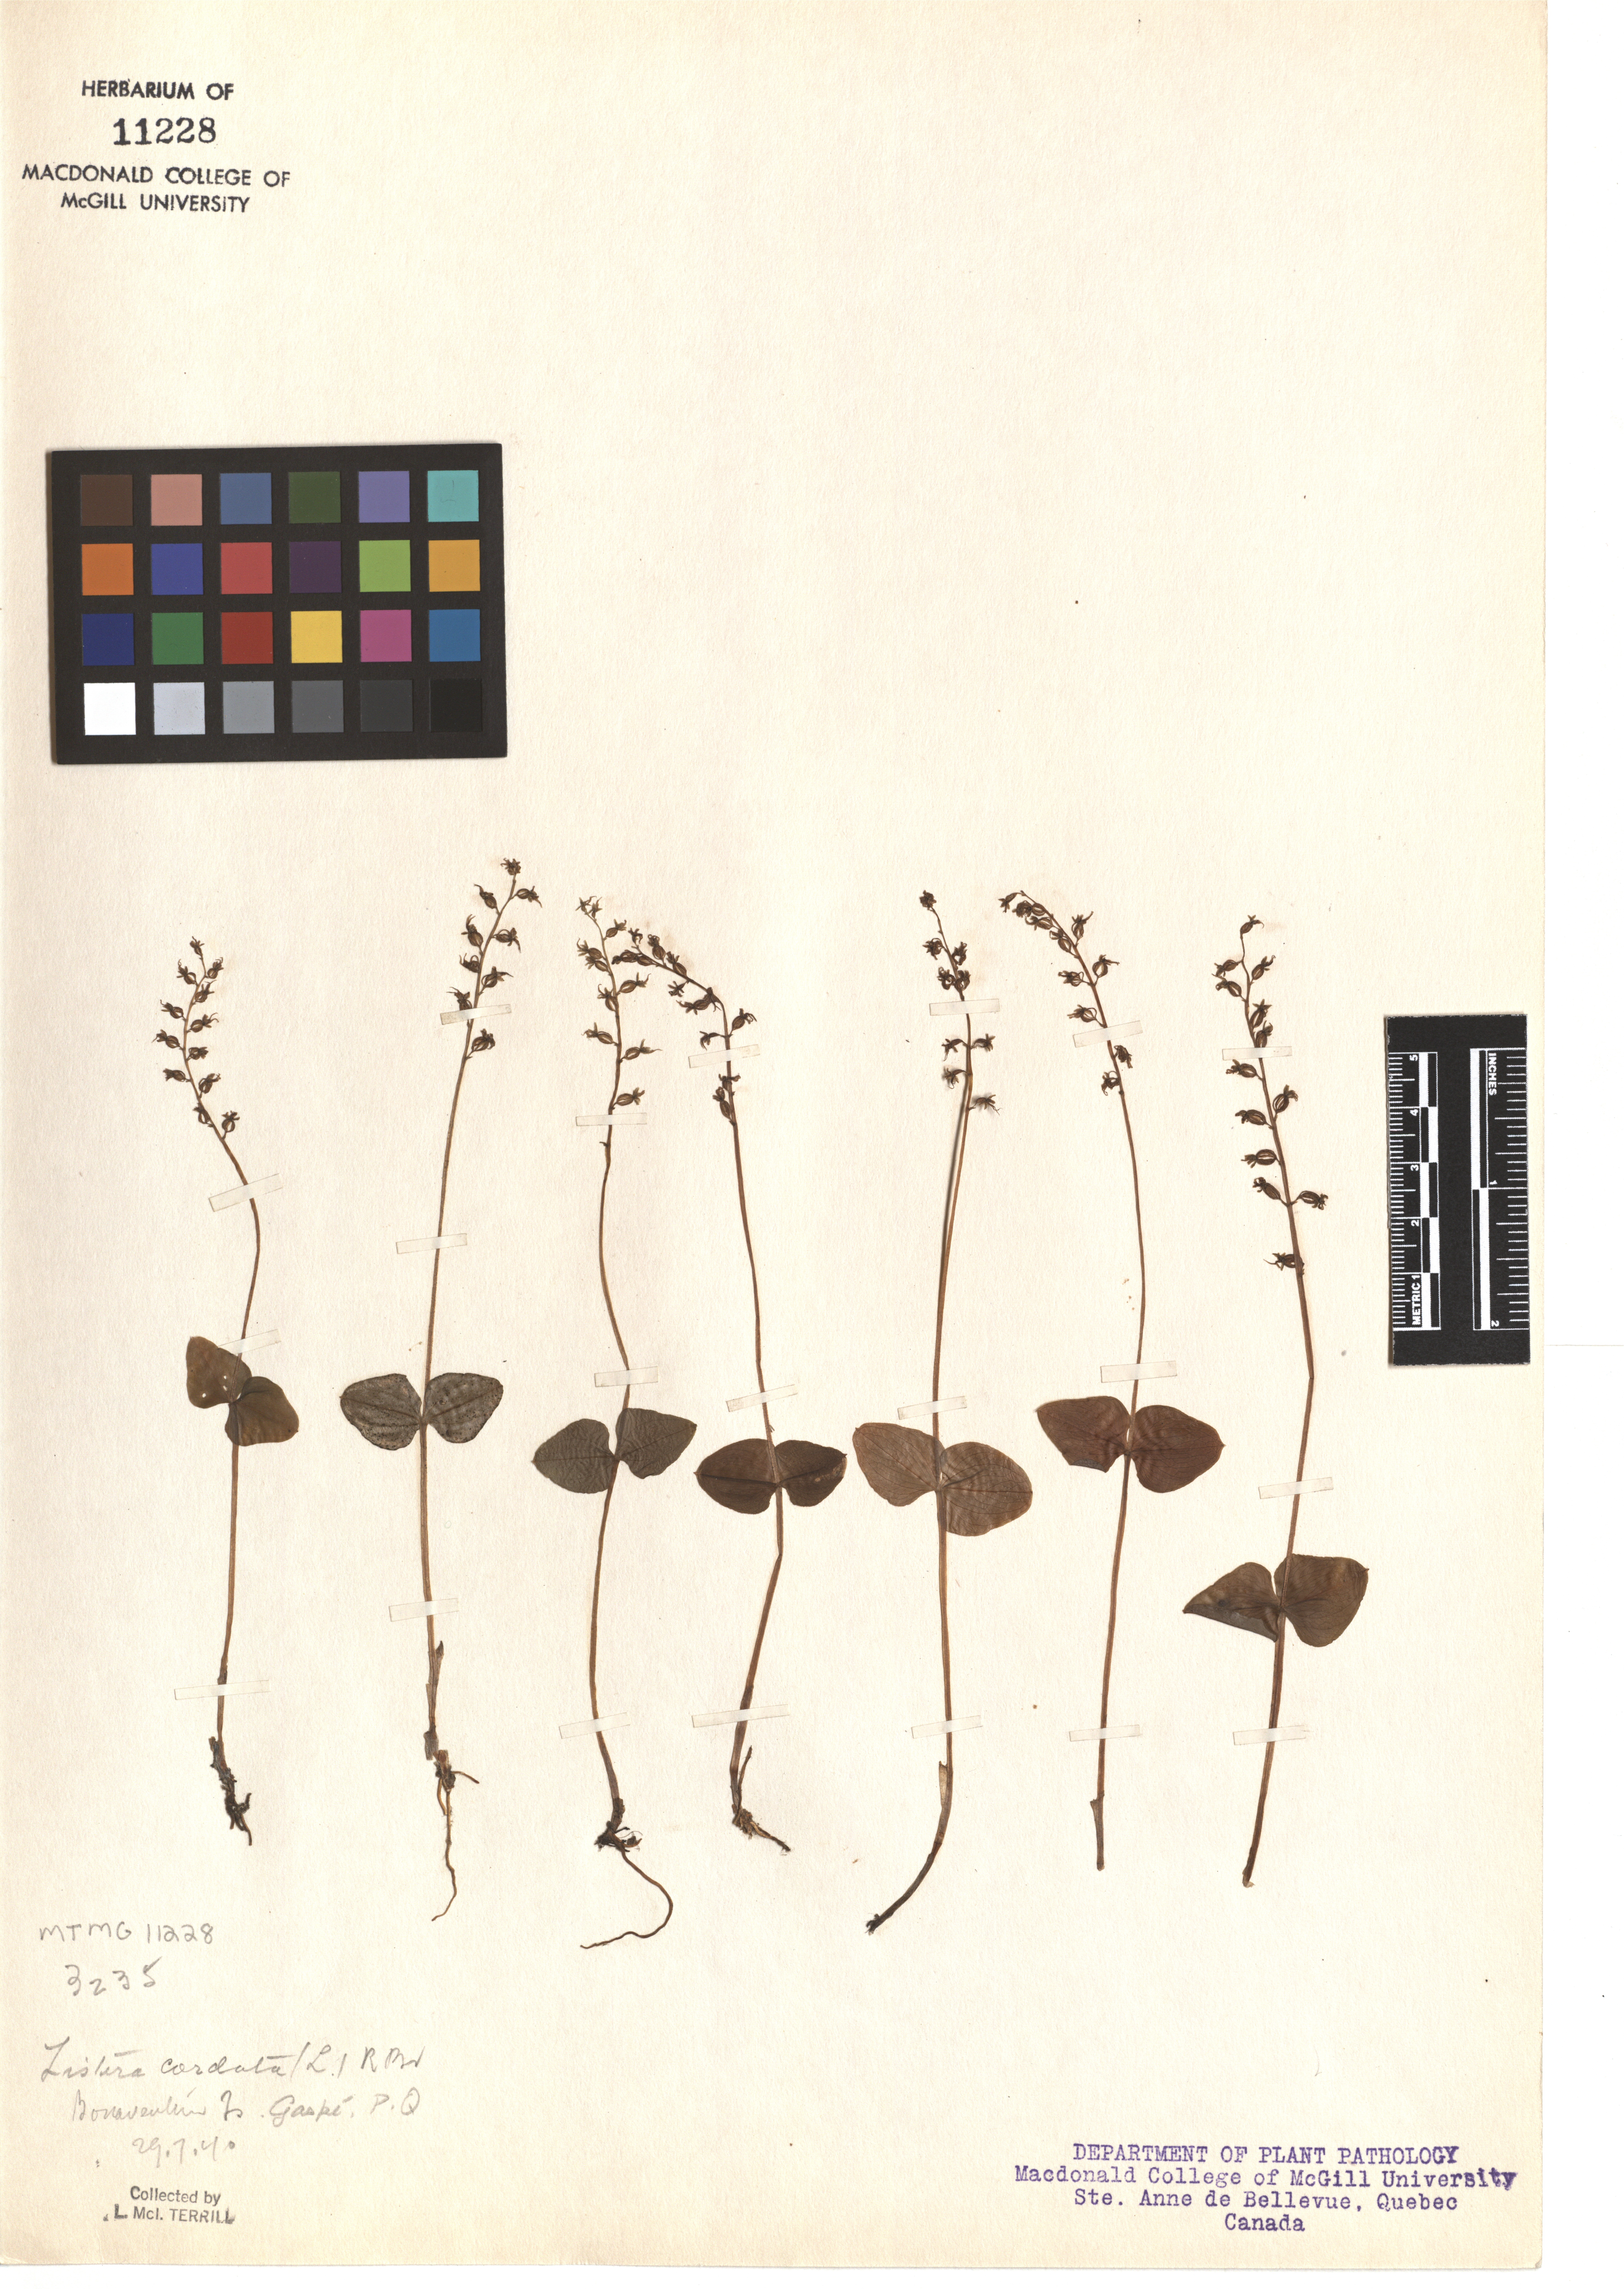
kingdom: Plantae
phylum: Tracheophyta
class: Liliopsida
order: Asparagales
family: Orchidaceae
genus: Neottia
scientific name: Neottia cordata
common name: Lesser twayblade
